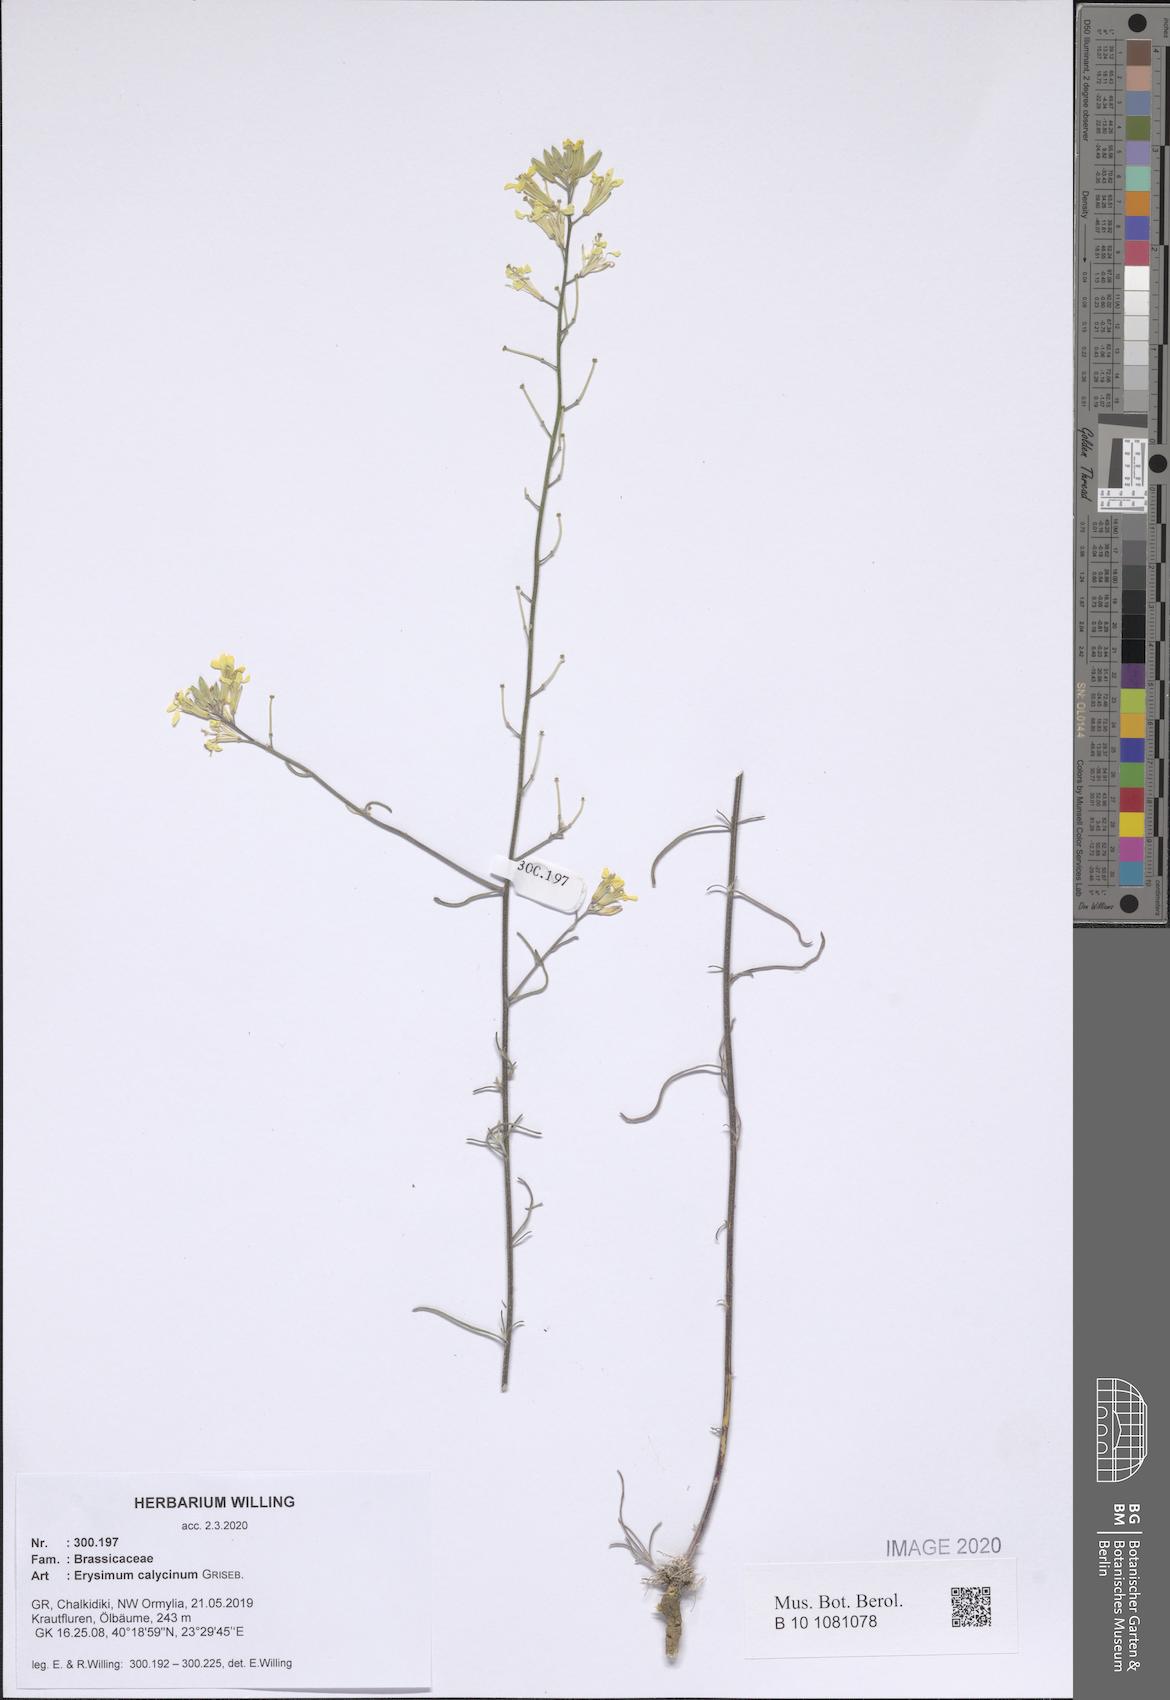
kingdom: Plantae
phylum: Tracheophyta
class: Magnoliopsida
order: Brassicales
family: Brassicaceae
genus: Erysimum
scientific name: Erysimum calycinum
